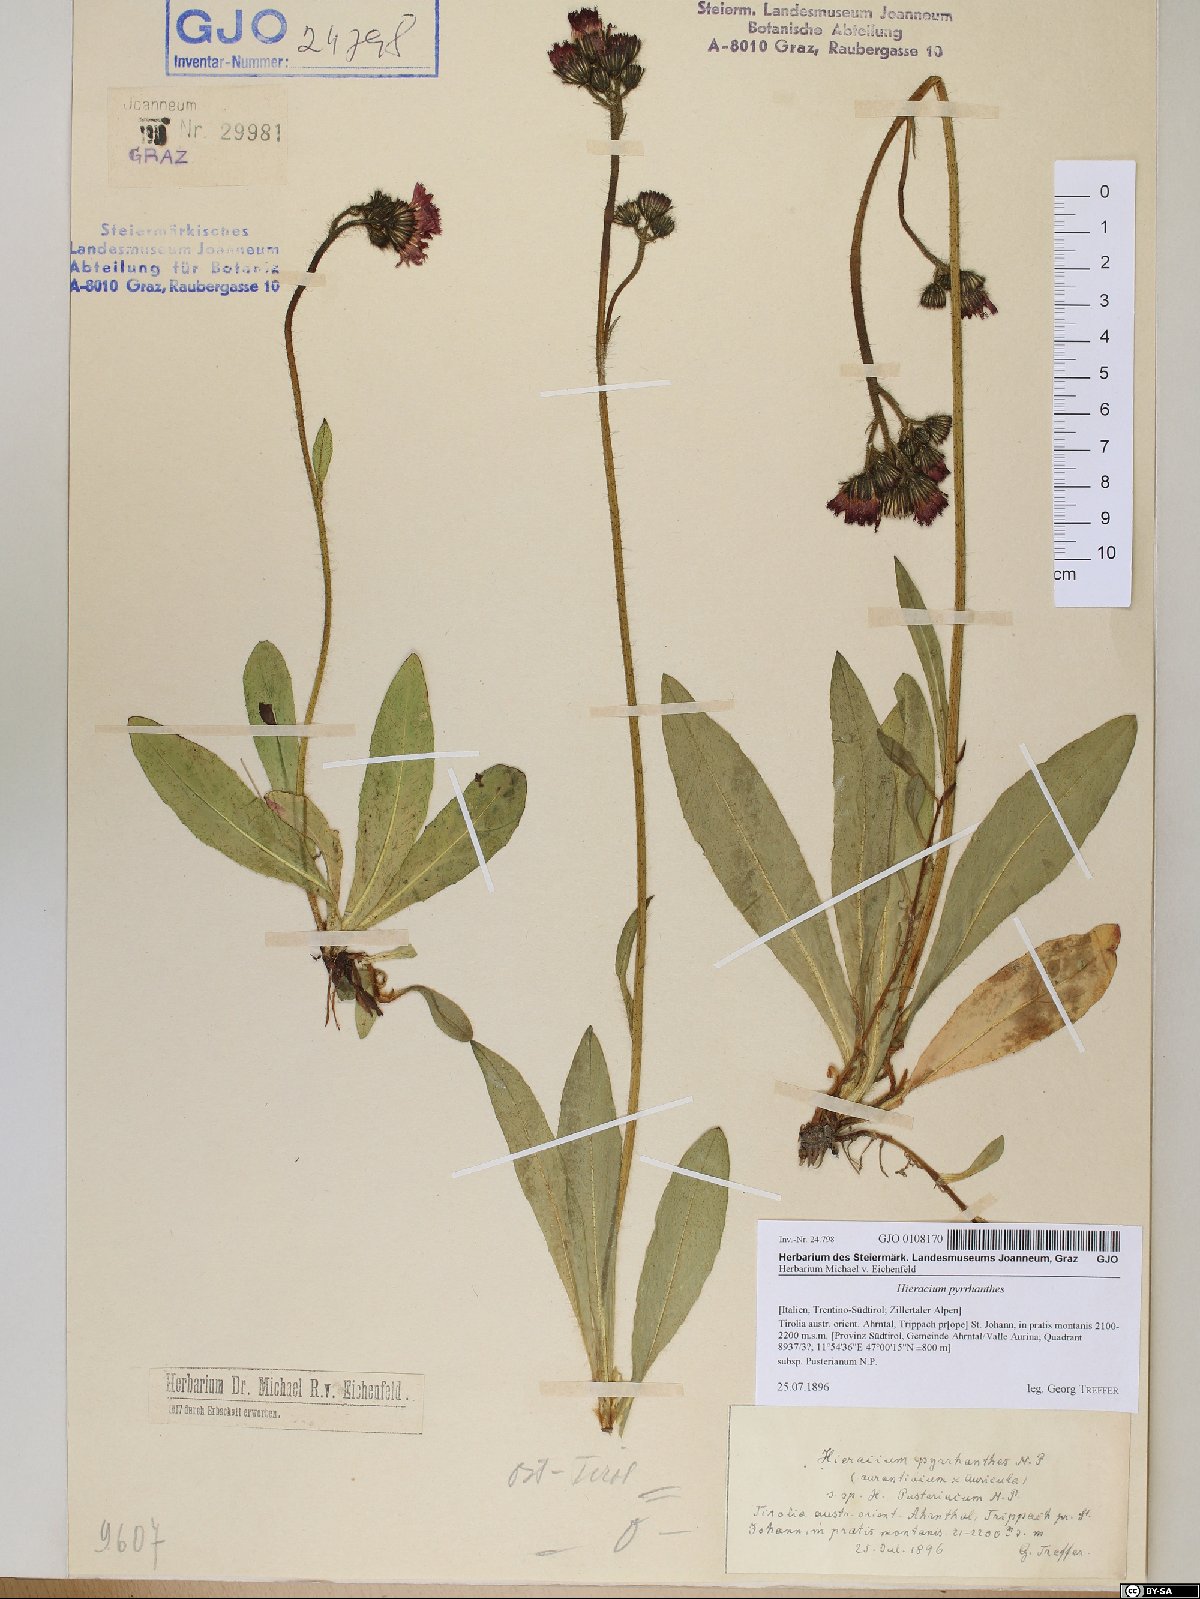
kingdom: Plantae
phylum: Tracheophyta
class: Magnoliopsida
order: Asterales
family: Asteraceae
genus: Pilosella
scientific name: Pilosella blyttiana
